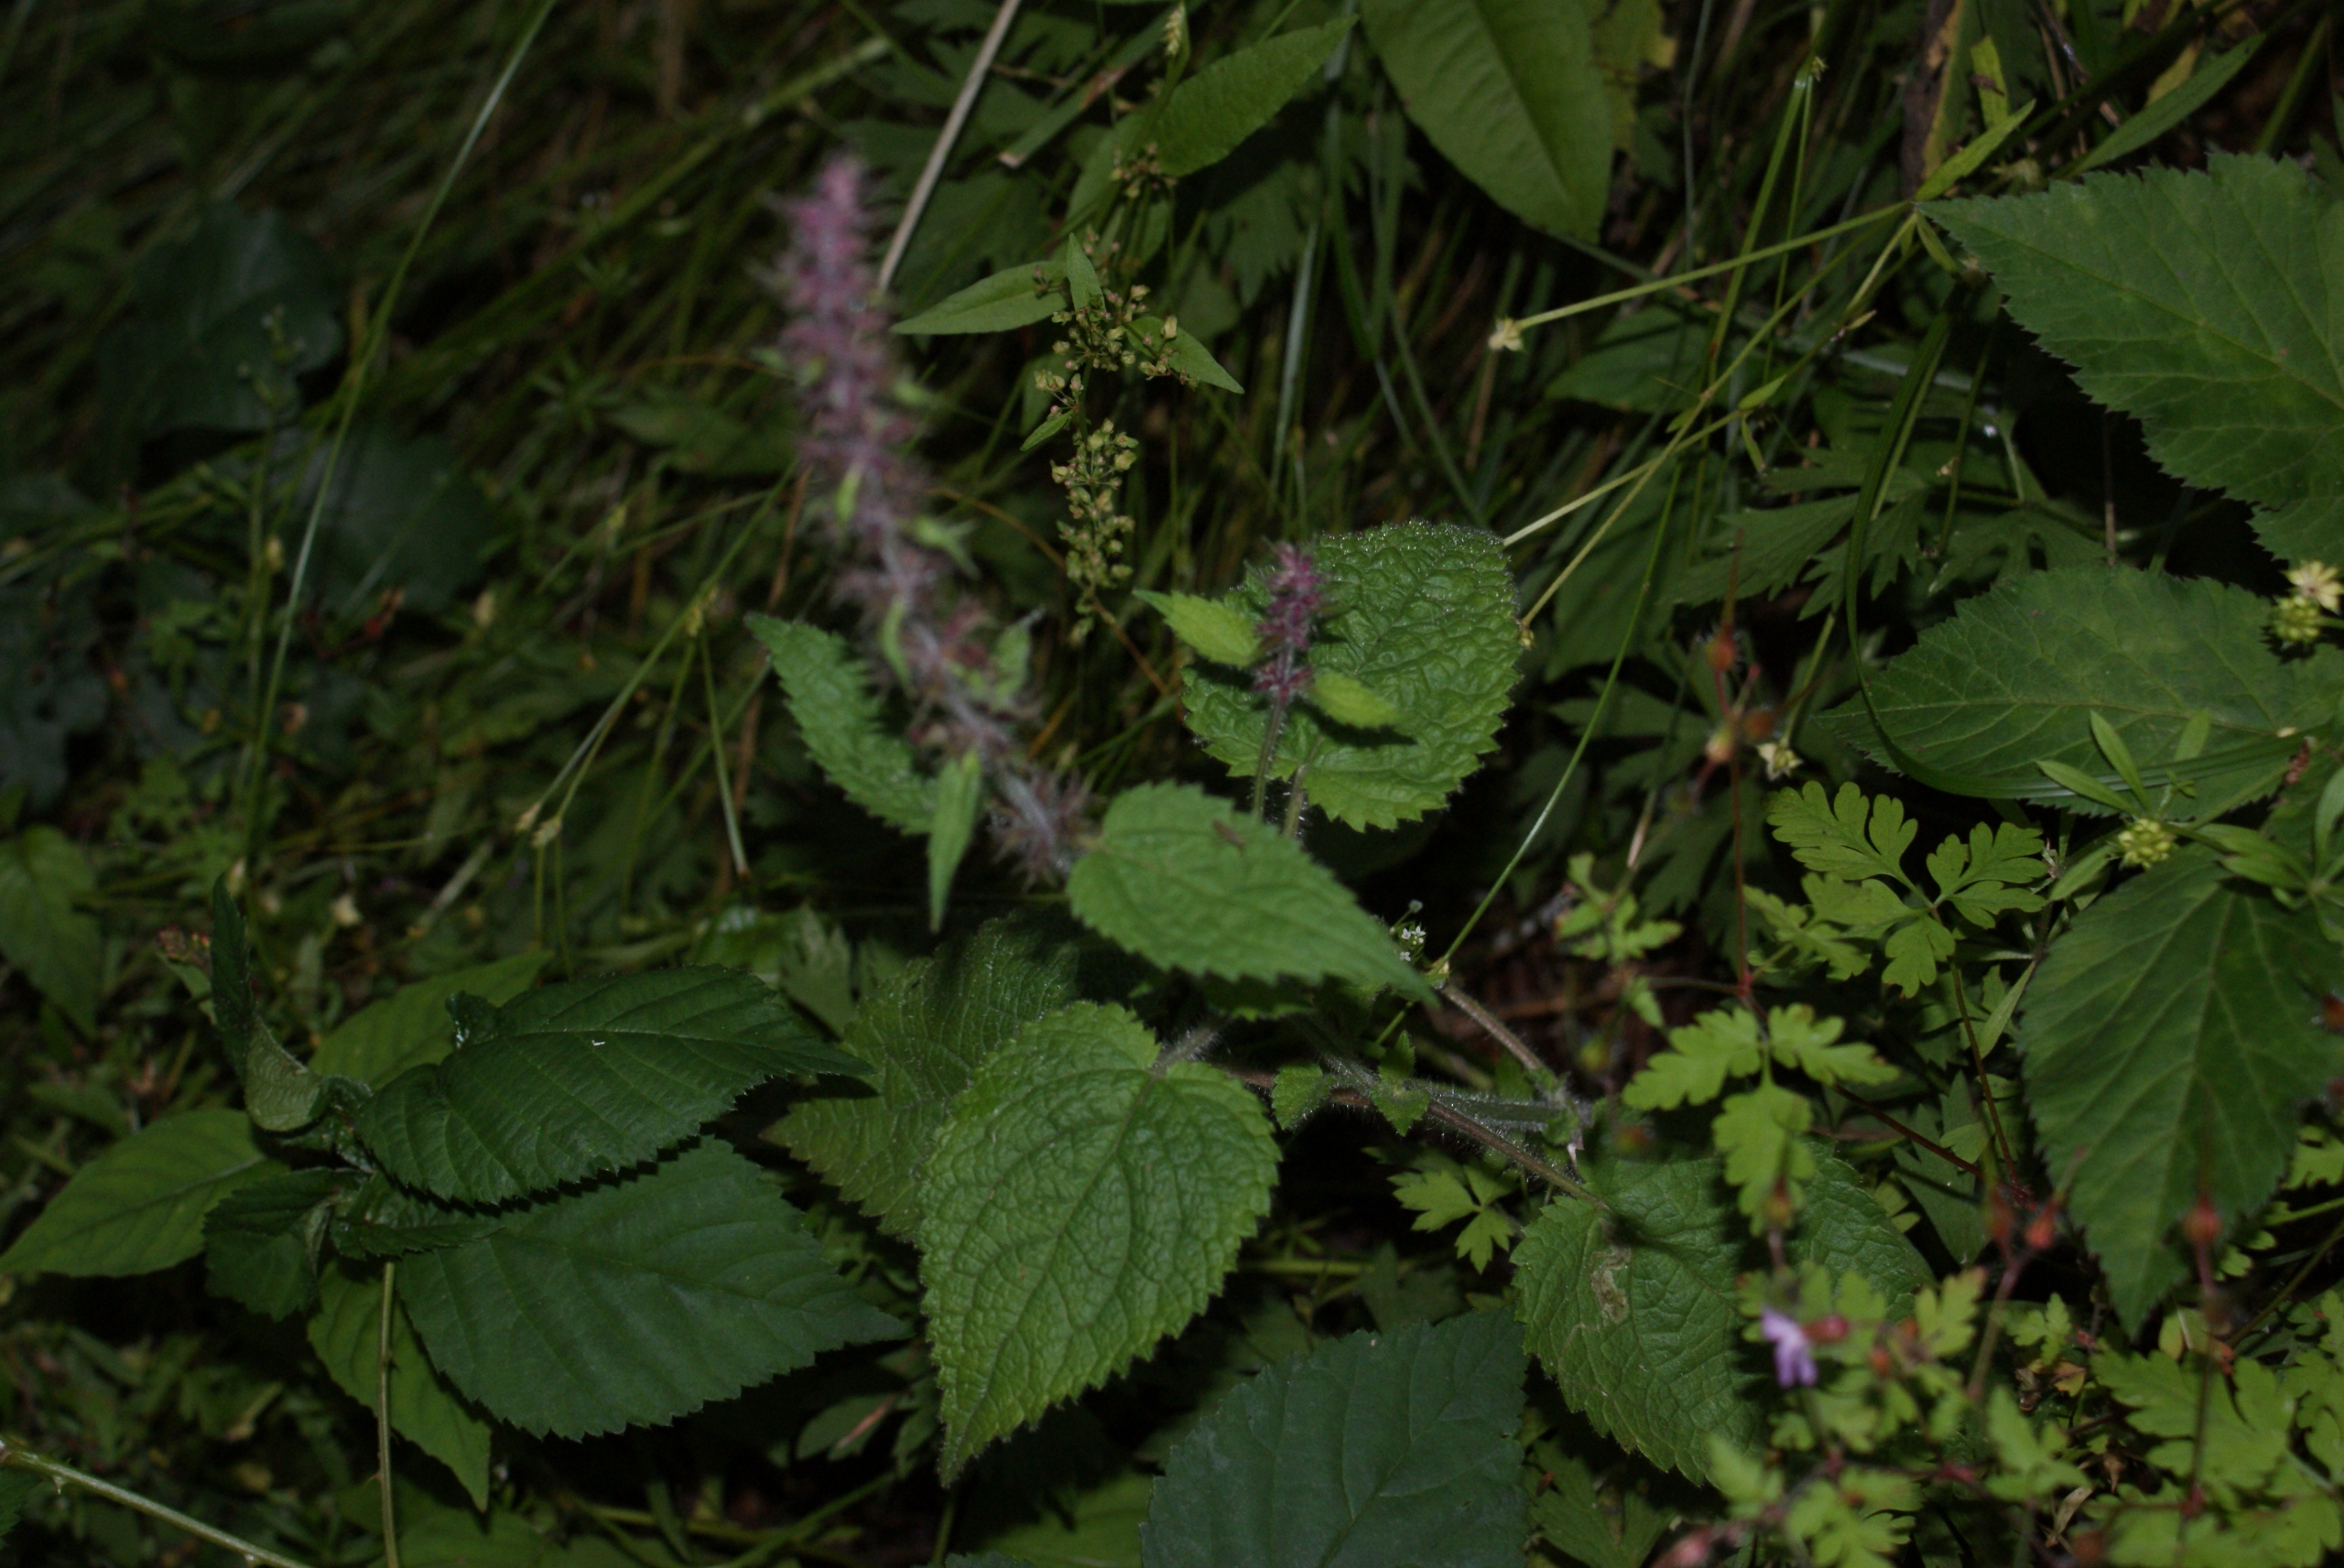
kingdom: Plantae
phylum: Tracheophyta
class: Magnoliopsida
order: Lamiales
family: Lamiaceae
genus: Stachys
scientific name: Stachys sylvatica
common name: Skov-galtetand
